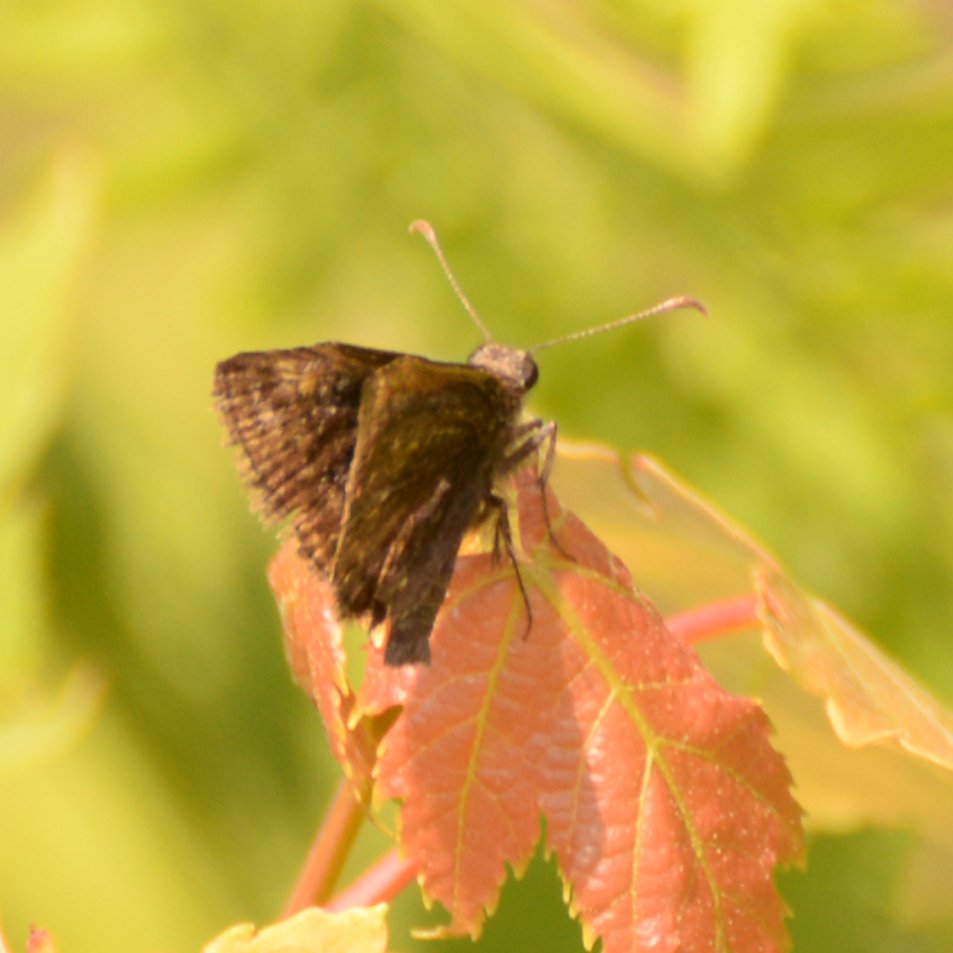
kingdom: Animalia
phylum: Arthropoda
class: Insecta
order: Lepidoptera
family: Hesperiidae
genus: Erynnis
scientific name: Erynnis
